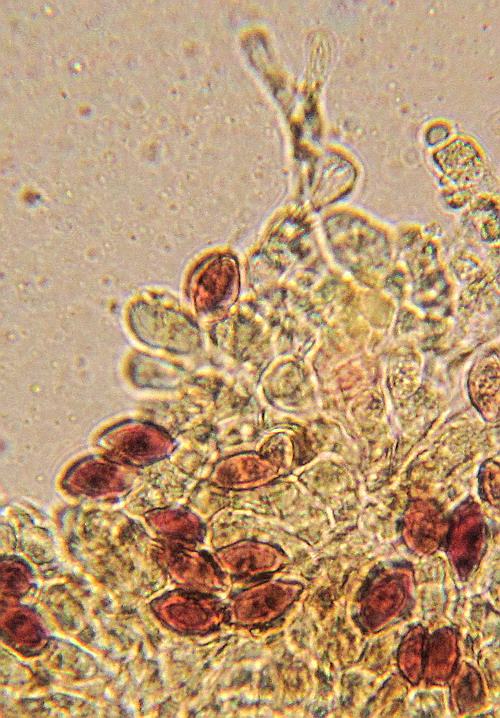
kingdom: Fungi
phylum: Basidiomycota
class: Agaricomycetes
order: Agaricales
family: Hymenogastraceae
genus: Galerina
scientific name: Galerina vittiformis
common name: Hairy leg bell
